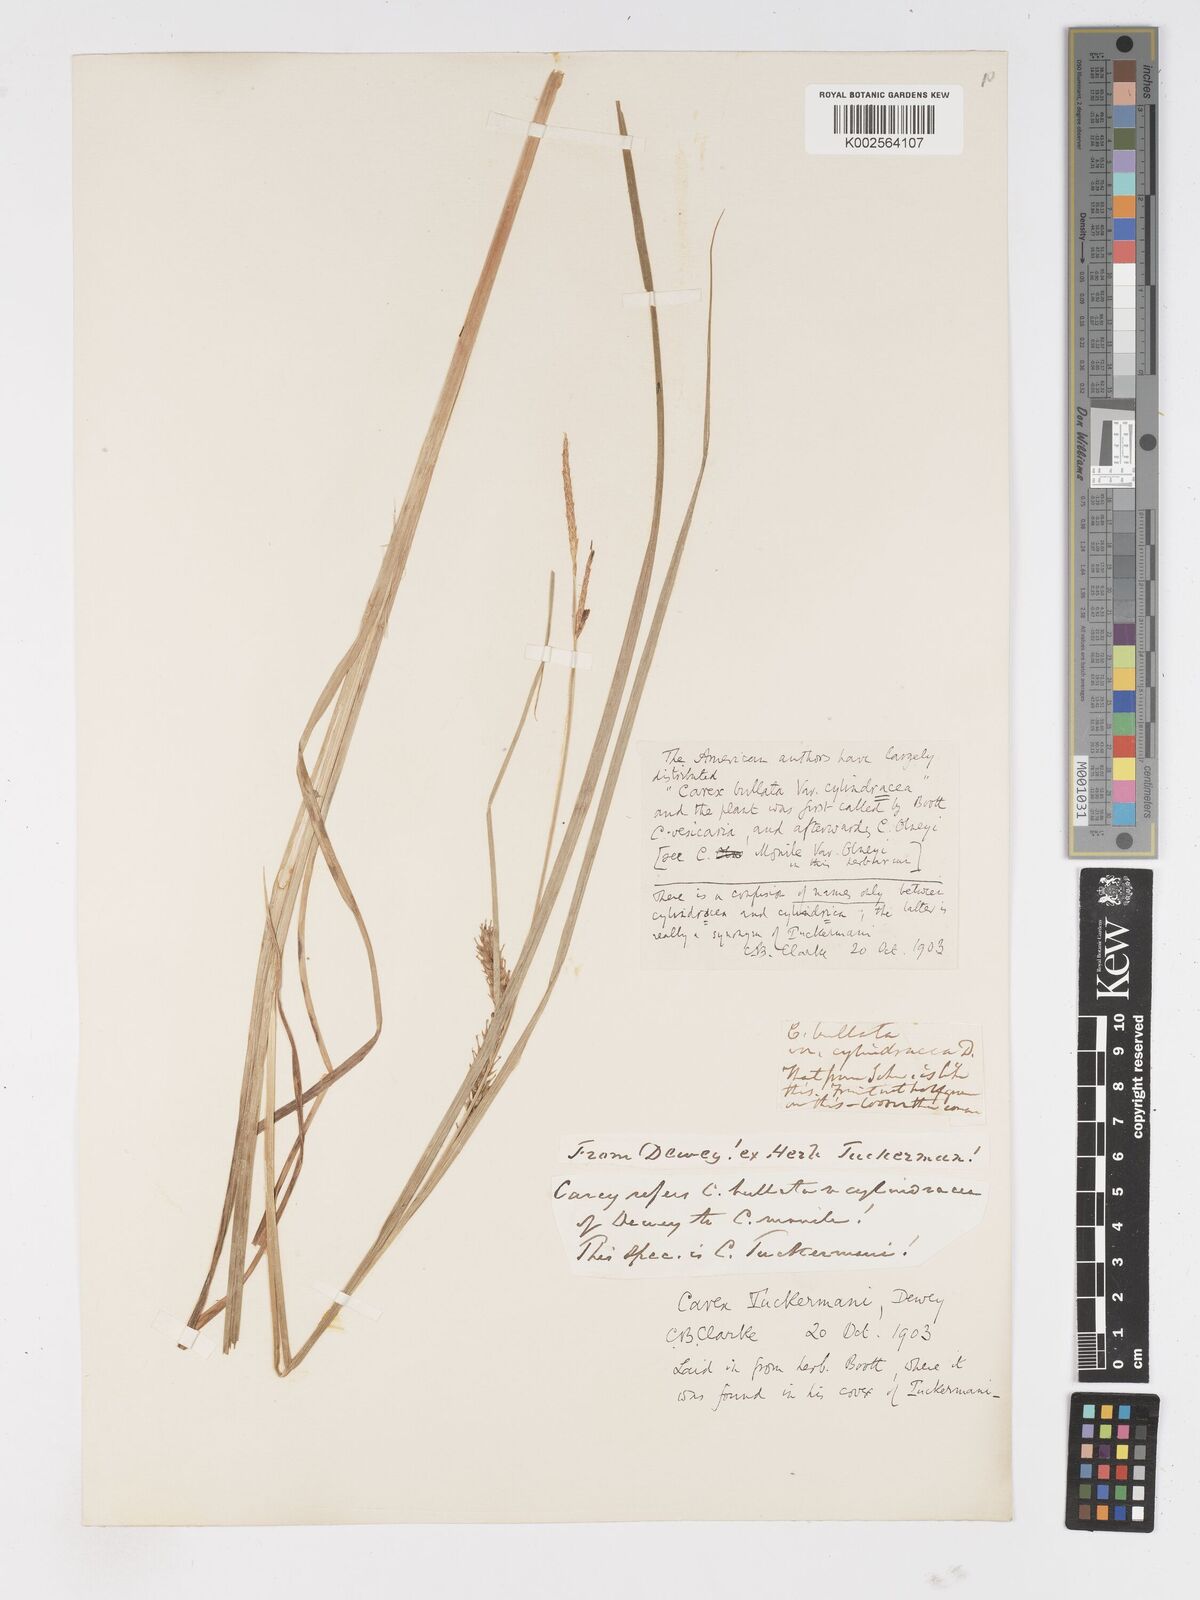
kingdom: Plantae
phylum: Tracheophyta
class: Liliopsida
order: Poales
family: Cyperaceae
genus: Carex
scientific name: Carex tuckermanii
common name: Tuckerman's sedge
